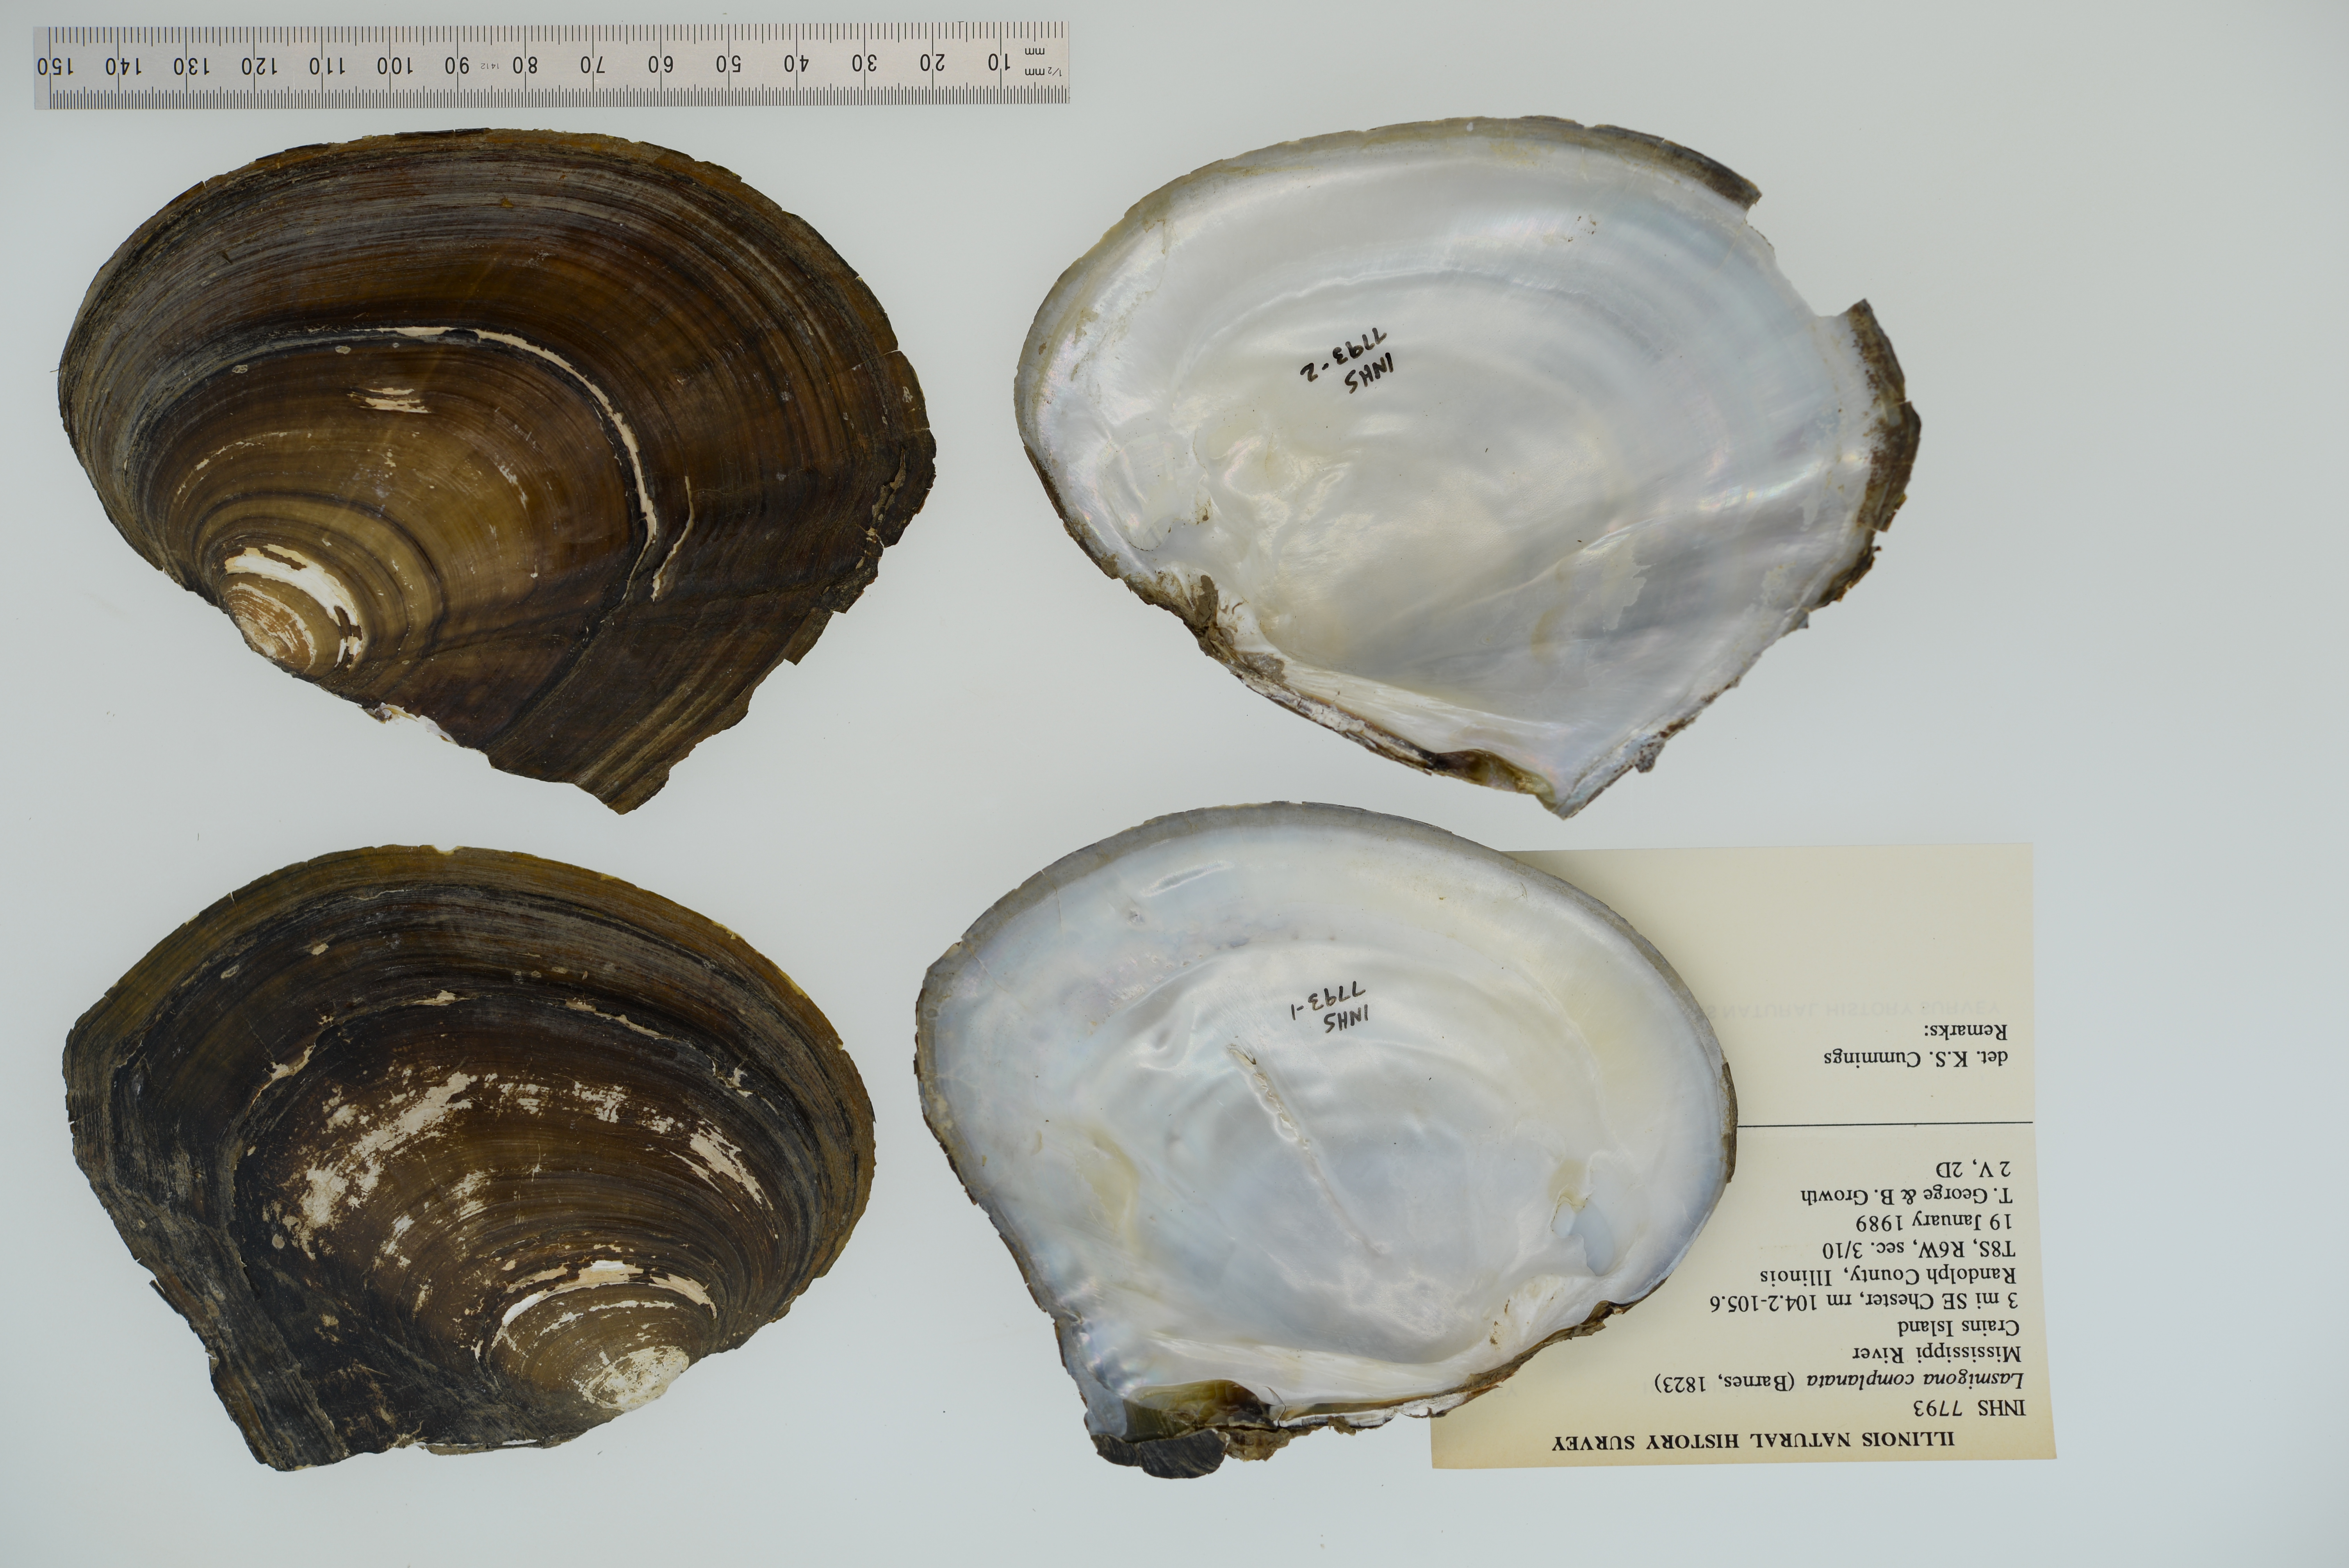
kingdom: Animalia
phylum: Mollusca
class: Bivalvia
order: Unionida
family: Unionidae
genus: Lasmigona
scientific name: Lasmigona complanata
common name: White heelsplitter
